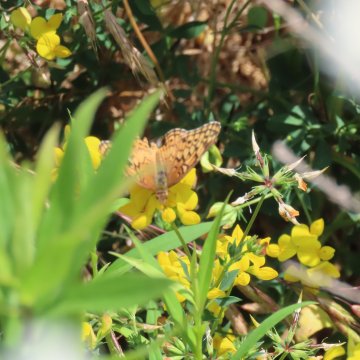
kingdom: Animalia
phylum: Arthropoda
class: Insecta
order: Lepidoptera
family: Nymphalidae
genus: Euptoieta
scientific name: Euptoieta claudia
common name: Variegated Fritillary
